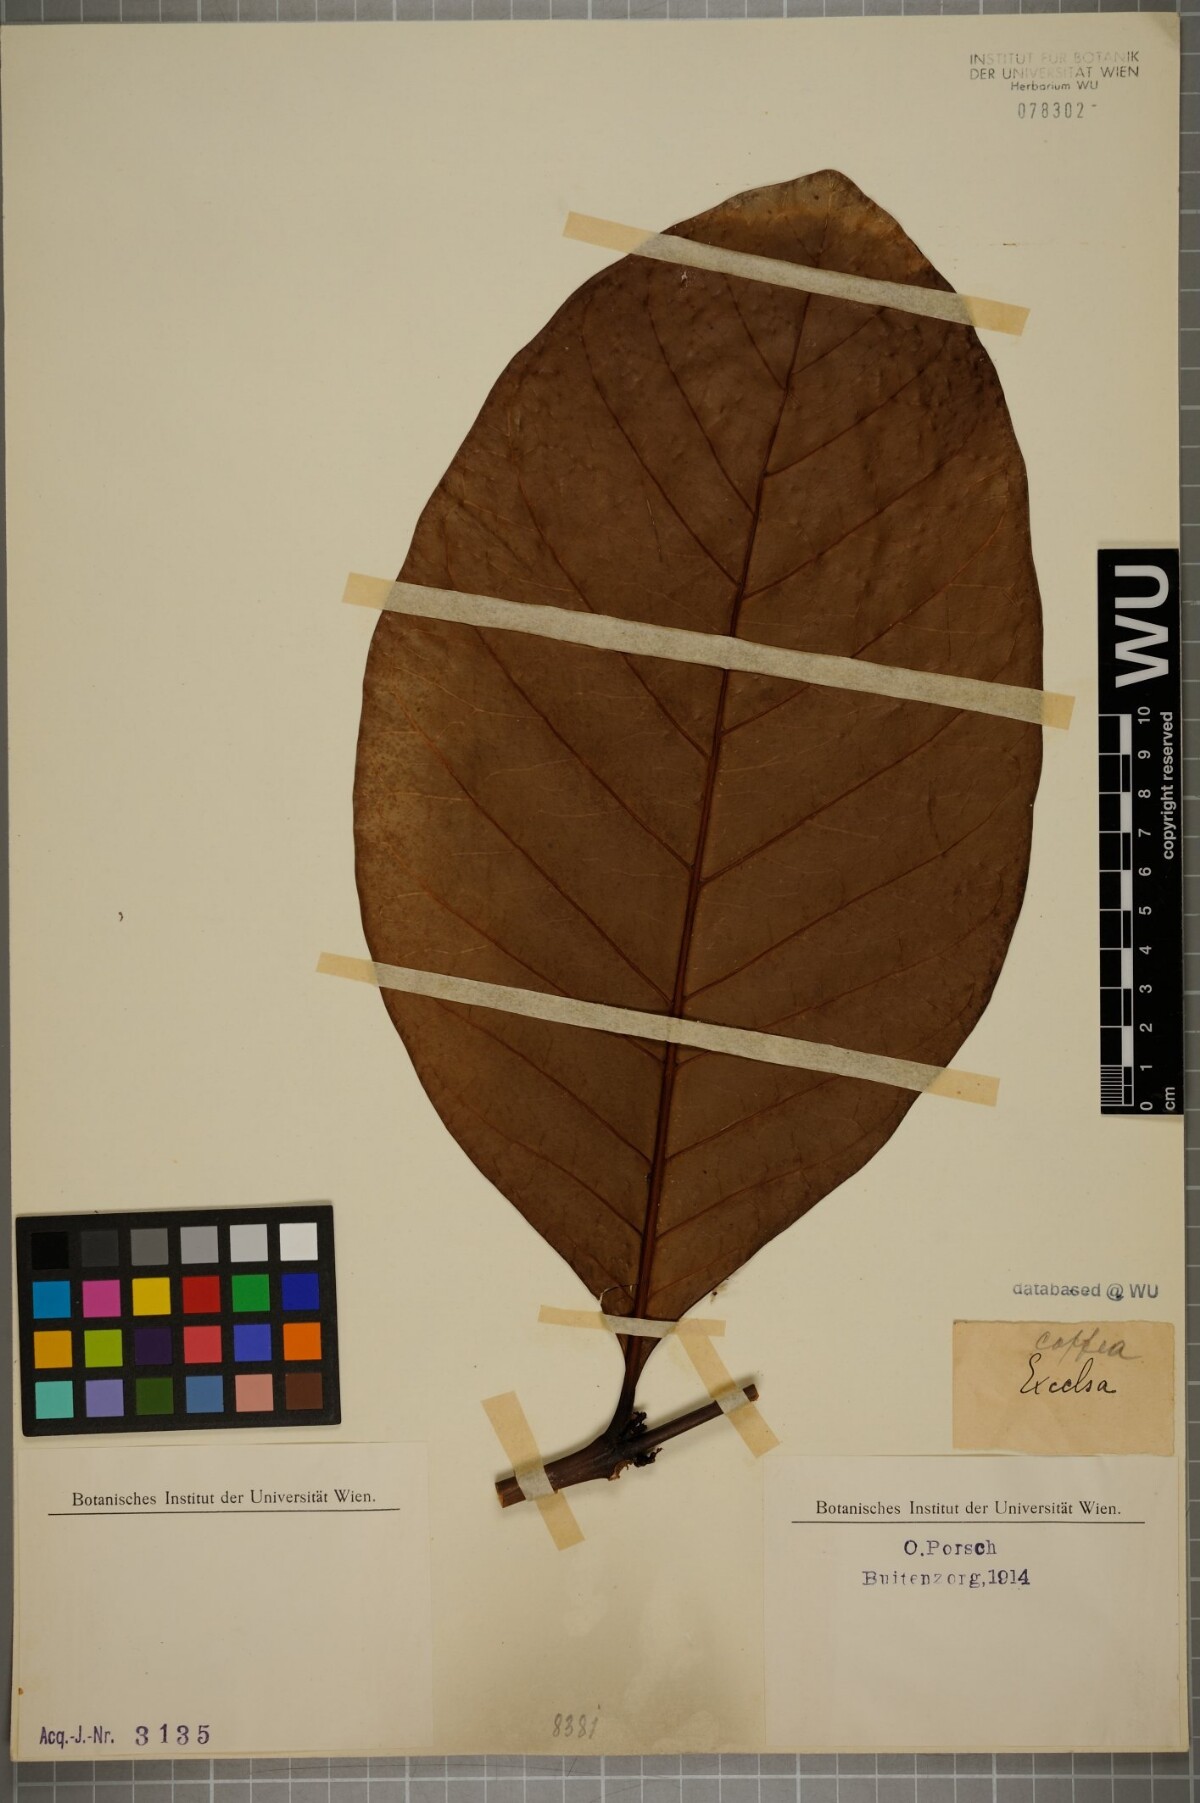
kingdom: Plantae
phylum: Tracheophyta
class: Magnoliopsida
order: Gentianales
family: Rubiaceae
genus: Coffea
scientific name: Coffea liberica
